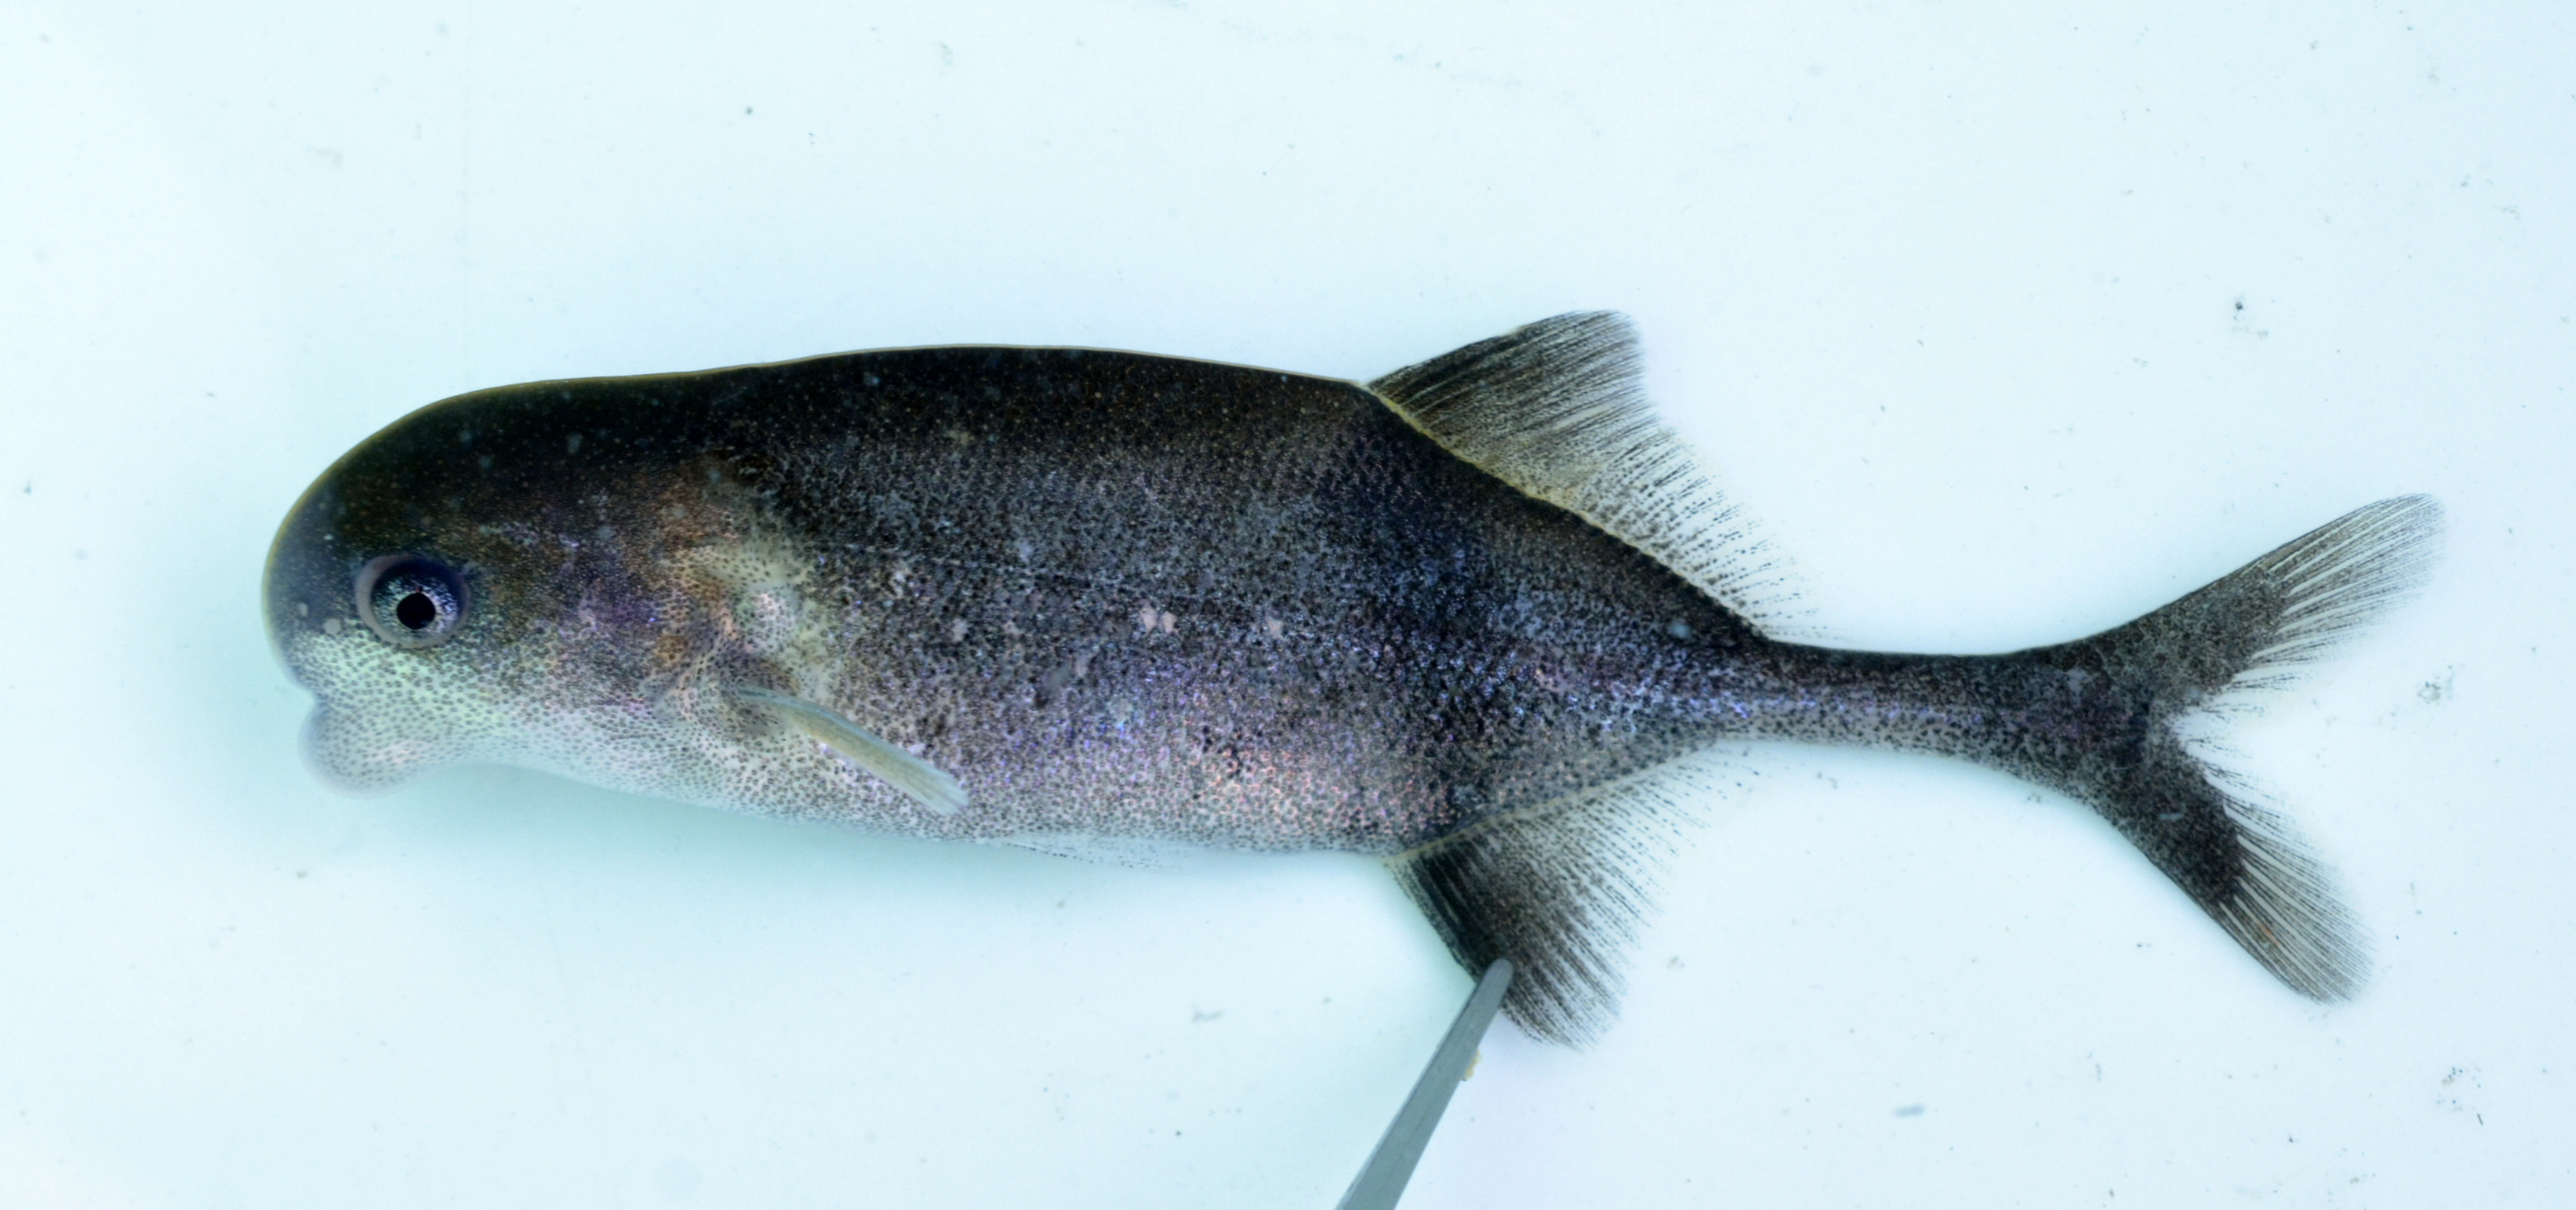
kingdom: Animalia
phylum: Chordata
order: Osteoglossiformes
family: Mormyridae
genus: Cyphomyrus
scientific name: Cyphomyrus discorhynchus
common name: Zambezi parrotfish
